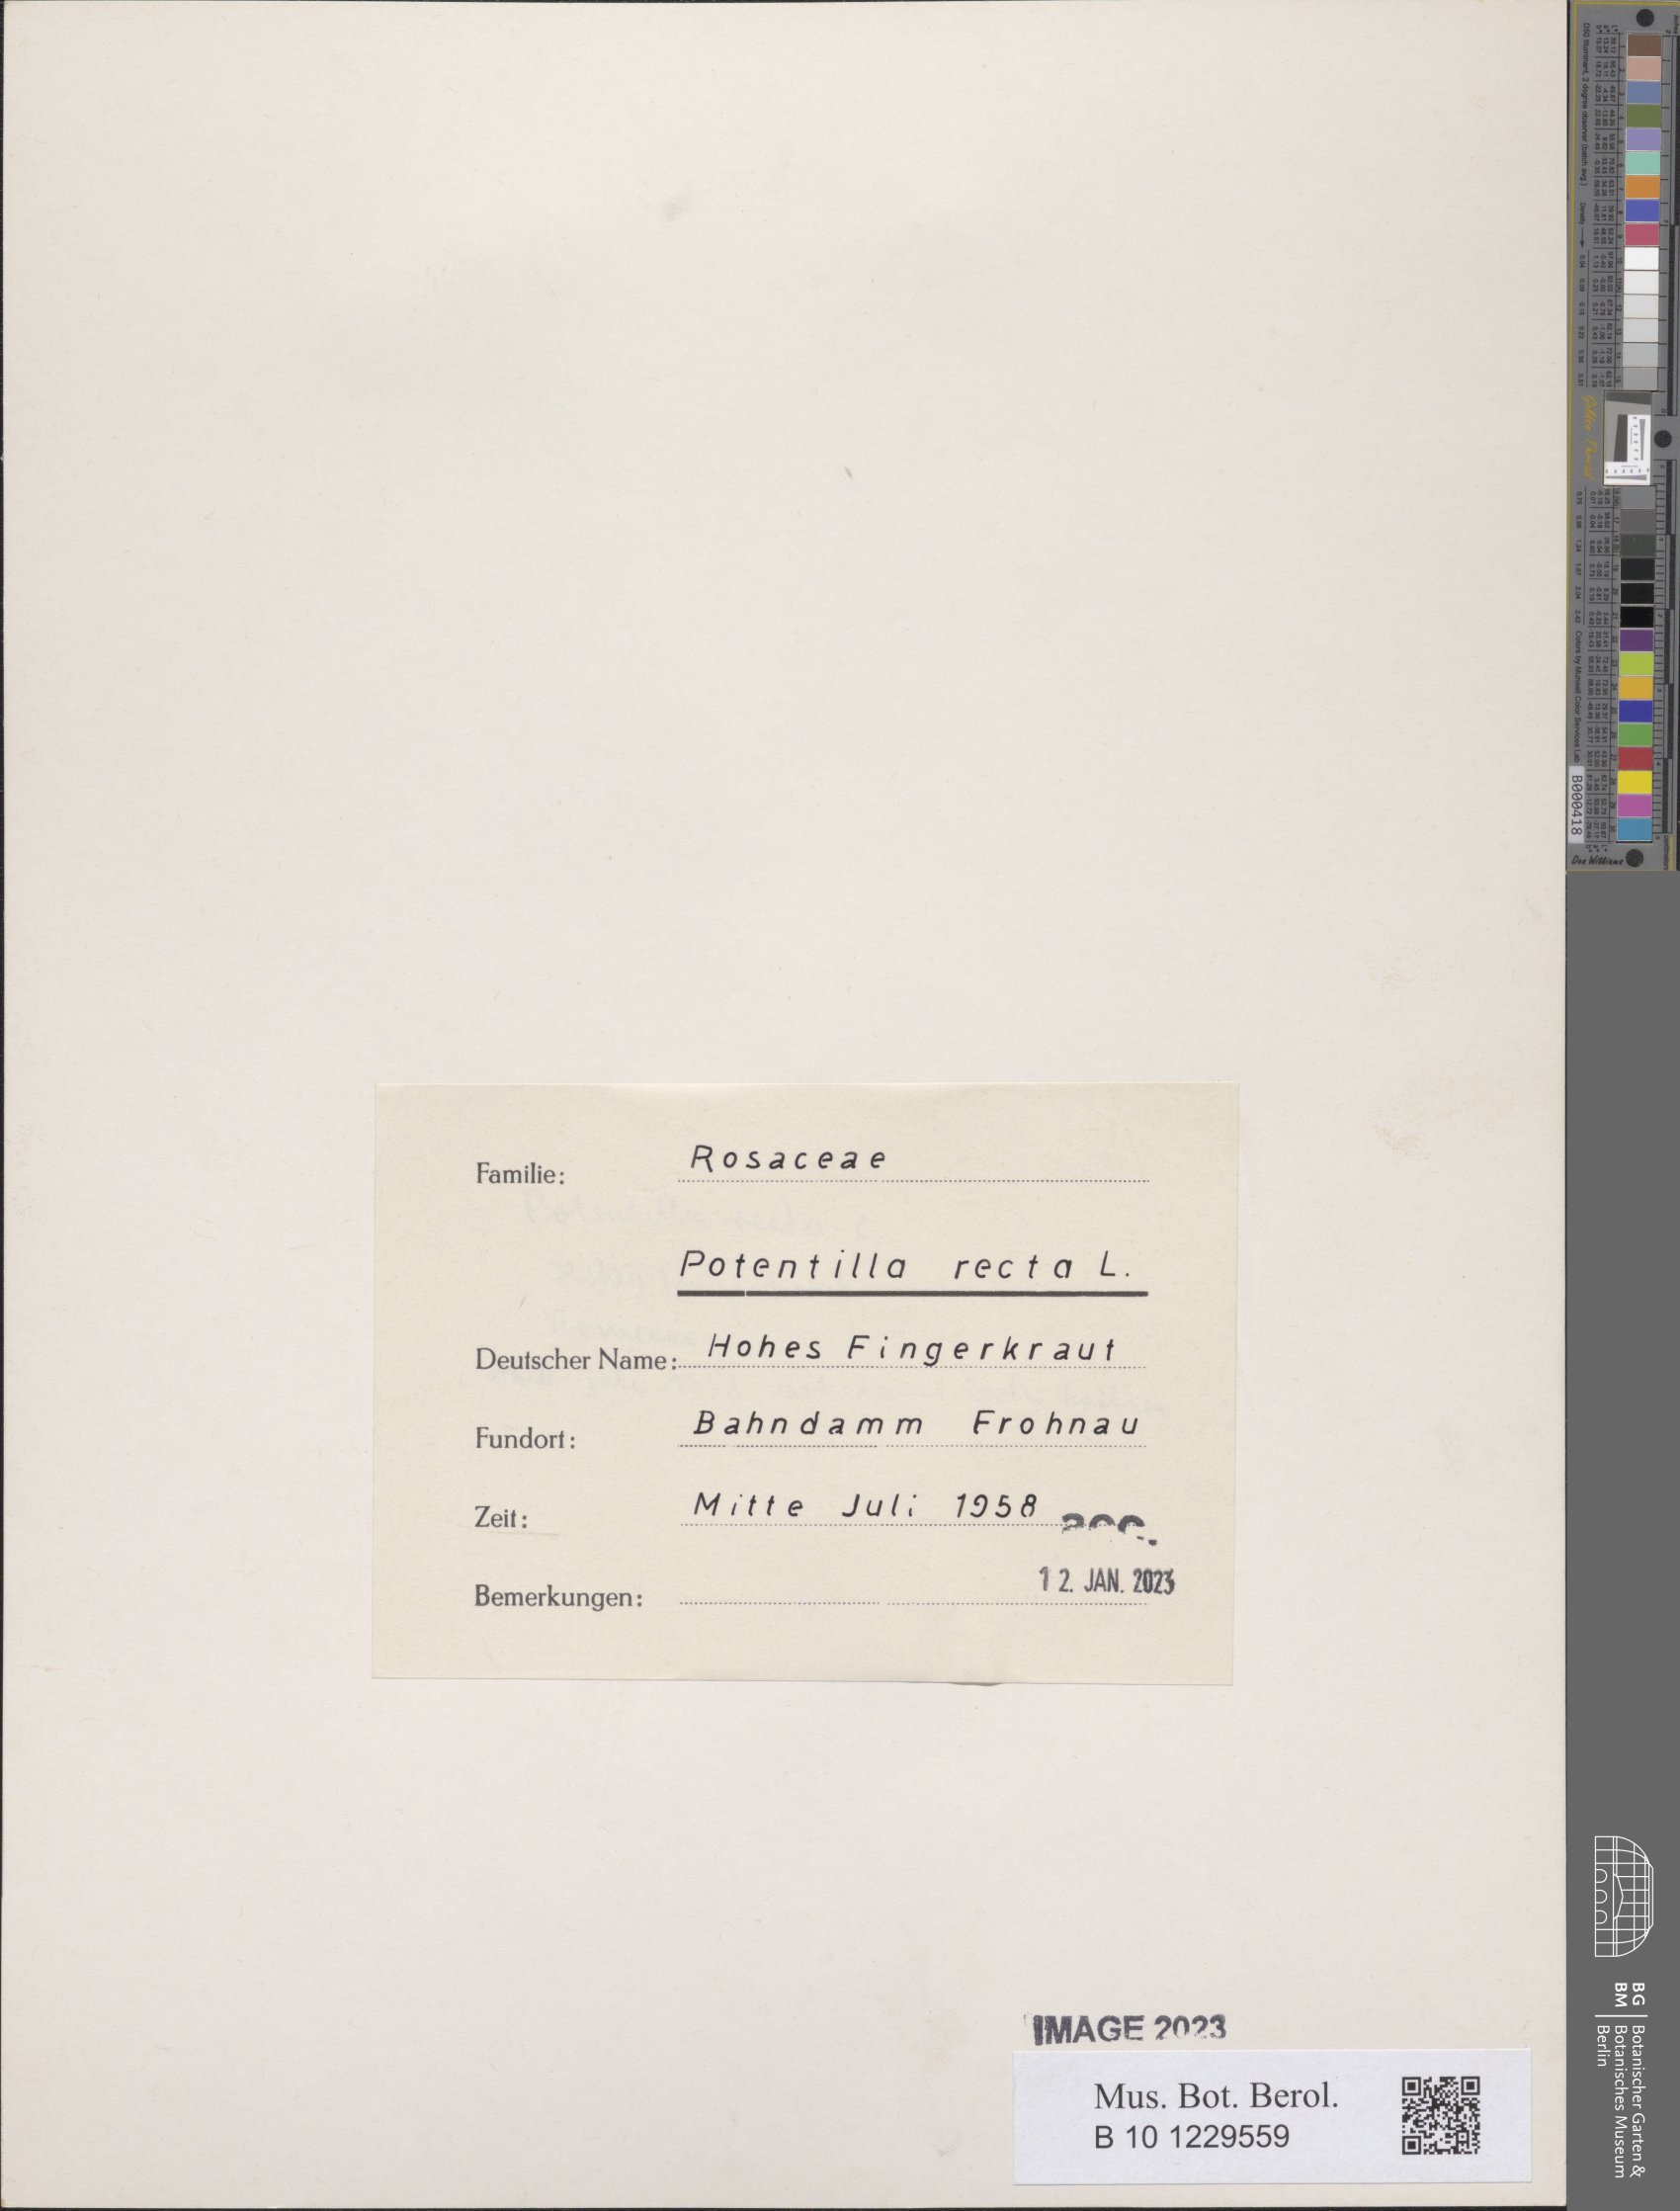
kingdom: Plantae
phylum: Tracheophyta
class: Magnoliopsida
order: Rosales
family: Rosaceae
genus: Potentilla
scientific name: Potentilla recta
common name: Sulphur cinquefoil
